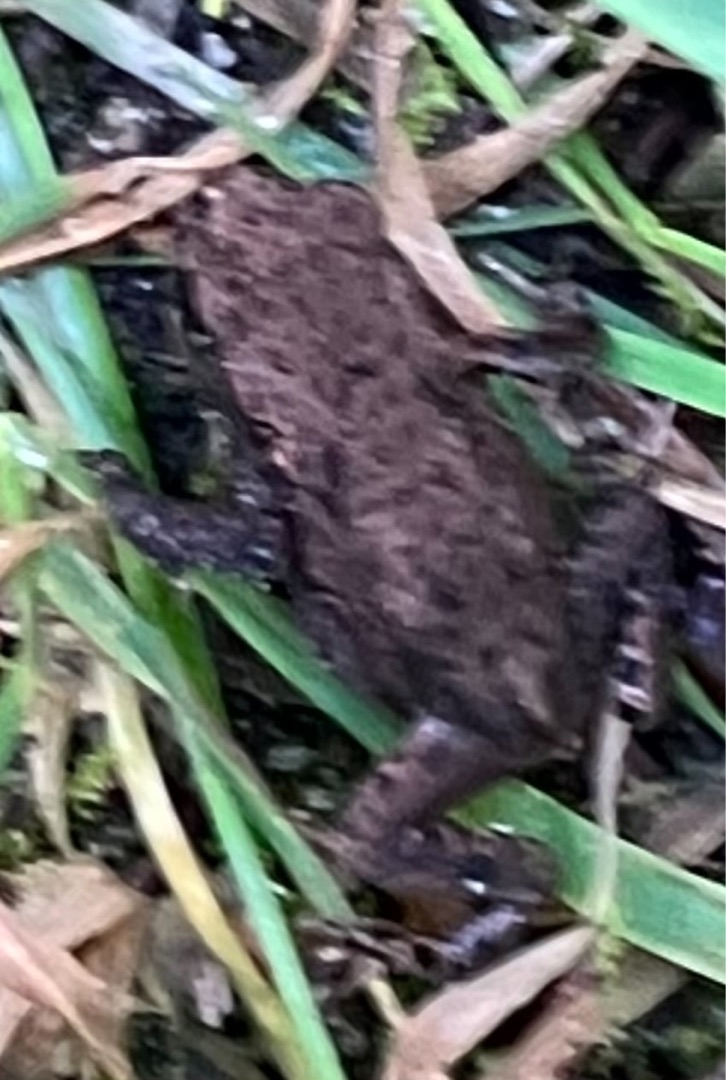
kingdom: Animalia
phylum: Chordata
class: Amphibia
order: Anura
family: Bufonidae
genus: Bufo
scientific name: Bufo bufo
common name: Skrubtudse
